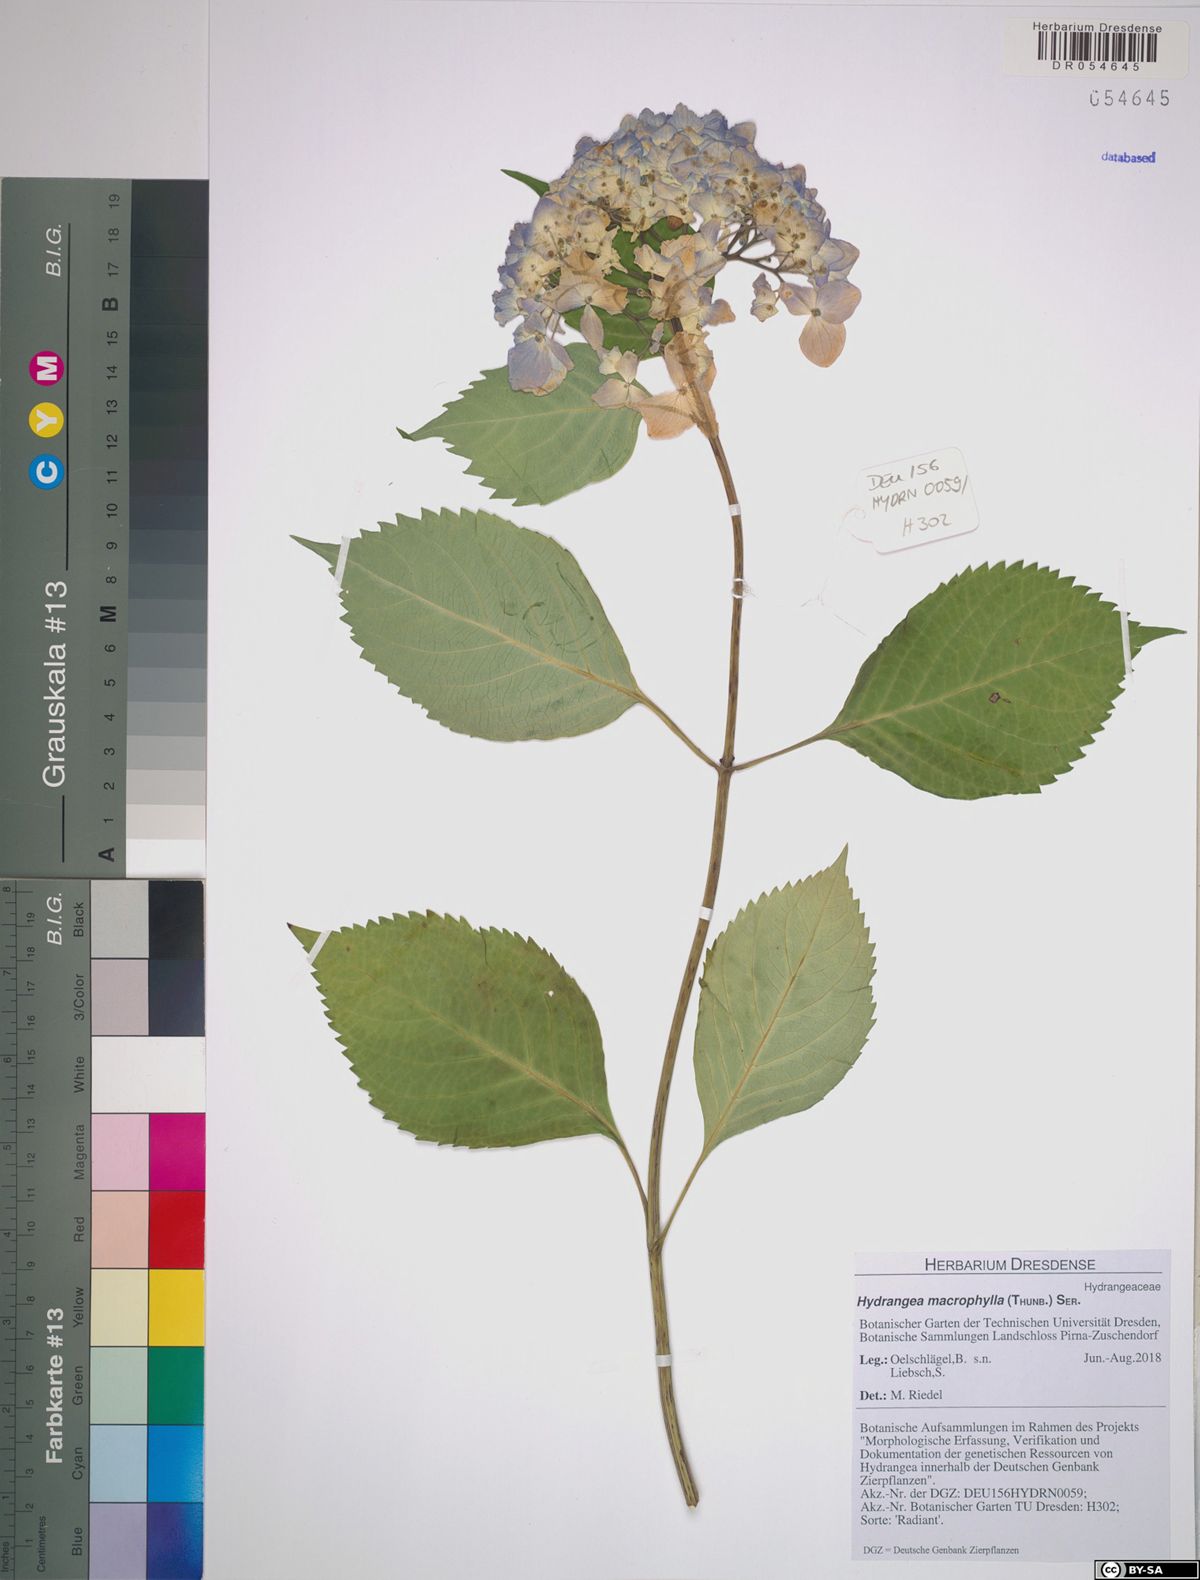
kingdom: Plantae
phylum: Tracheophyta
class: Magnoliopsida
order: Cornales
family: Hydrangeaceae
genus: Hydrangea
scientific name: Hydrangea macrophylla
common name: Hydrangea
